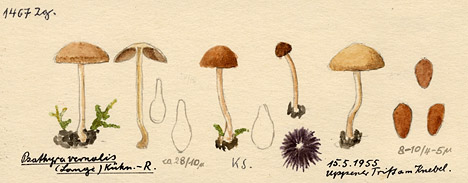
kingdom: Fungi
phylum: Basidiomycota
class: Agaricomycetes
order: Agaricales
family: Psathyrellaceae
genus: Psathyrella
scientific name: Psathyrella spadiceogrisea
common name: Spring brittlestem
